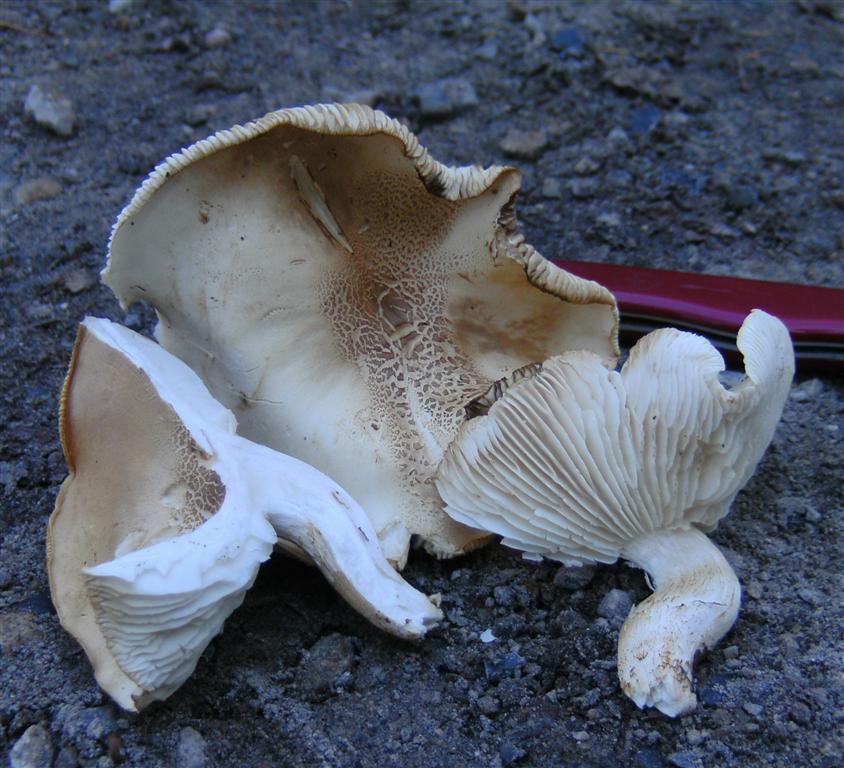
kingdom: Fungi
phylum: Basidiomycota
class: Agaricomycetes
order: Agaricales
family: Tricholomataceae
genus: Tricholoma
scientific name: Tricholoma lascivum
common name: stinkende ridderhat
